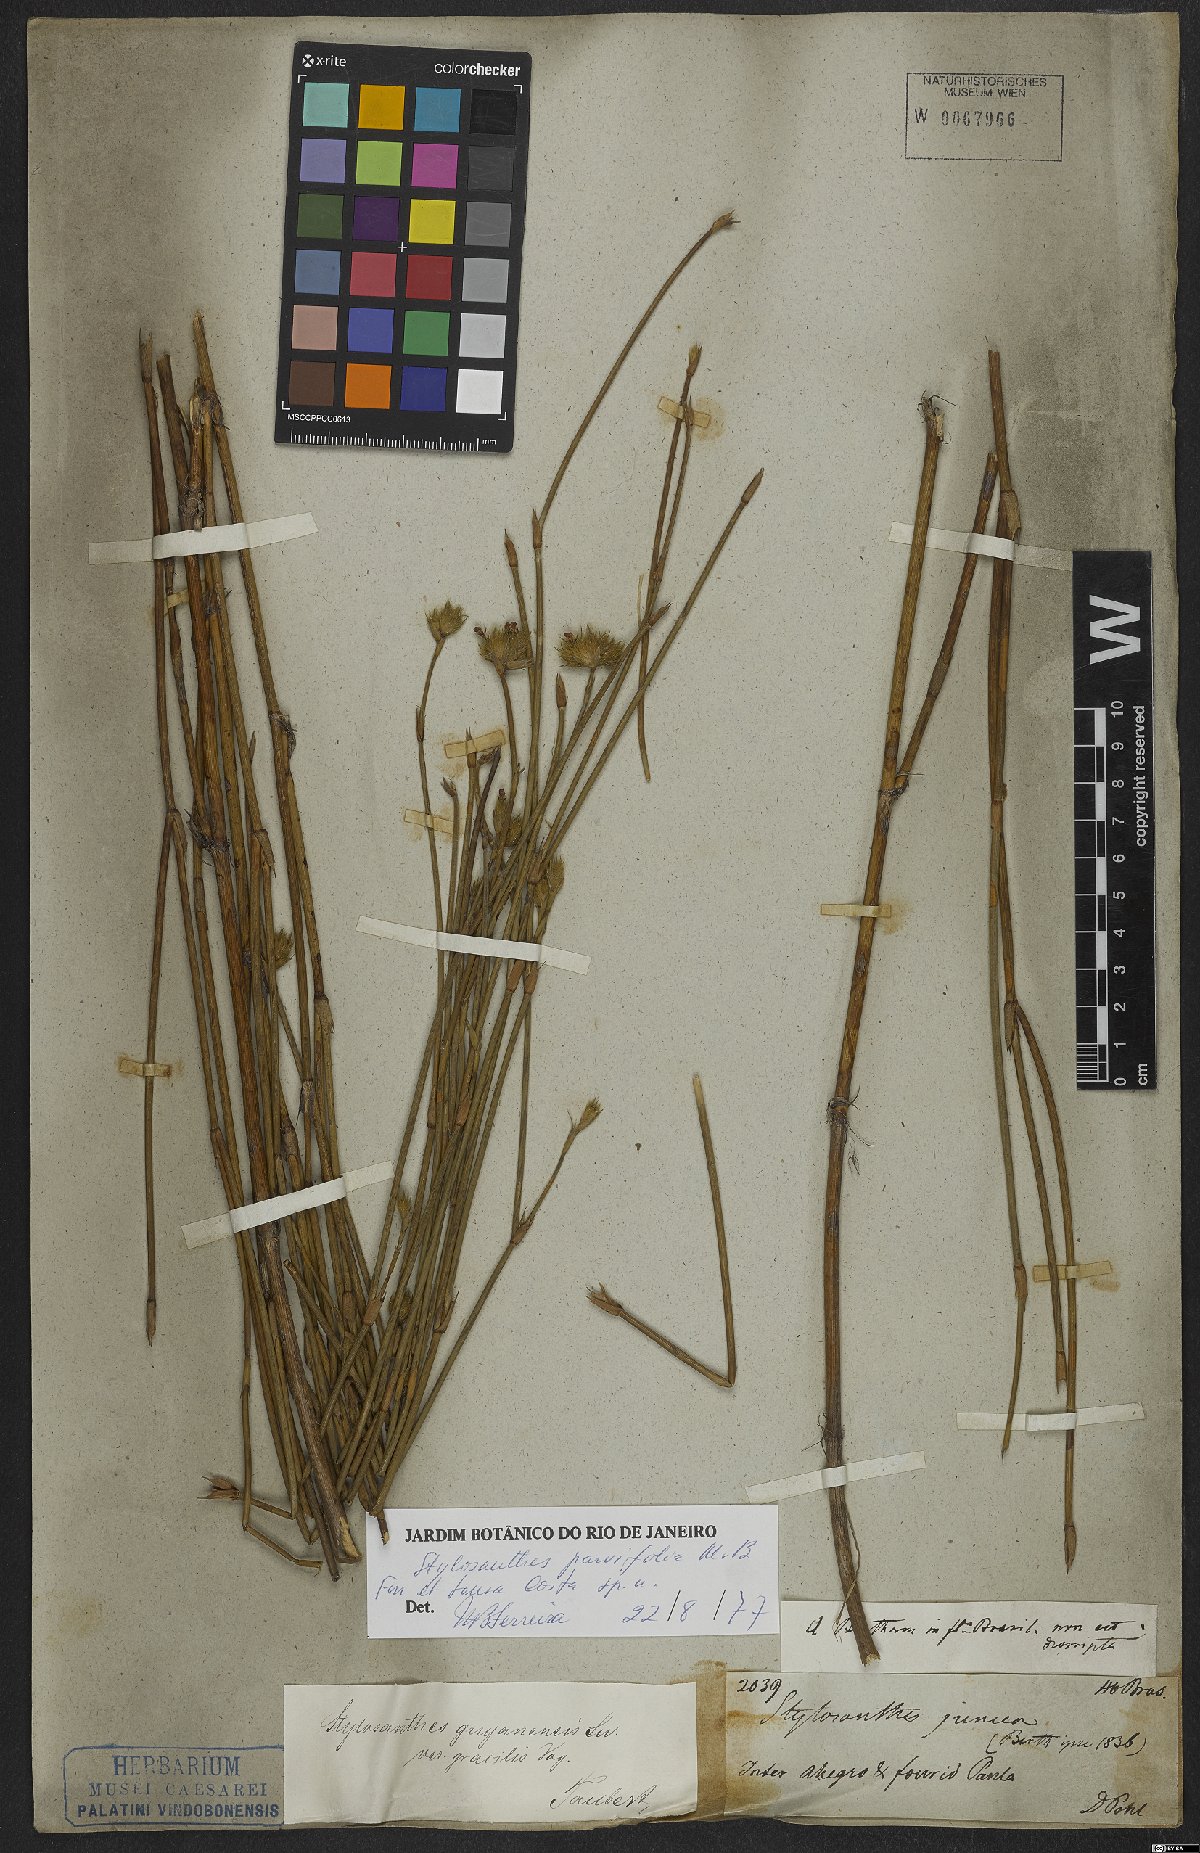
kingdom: Plantae
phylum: Tracheophyta
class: Magnoliopsida
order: Fabales
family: Fabaceae
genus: Stylosanthes
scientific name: Stylosanthes
